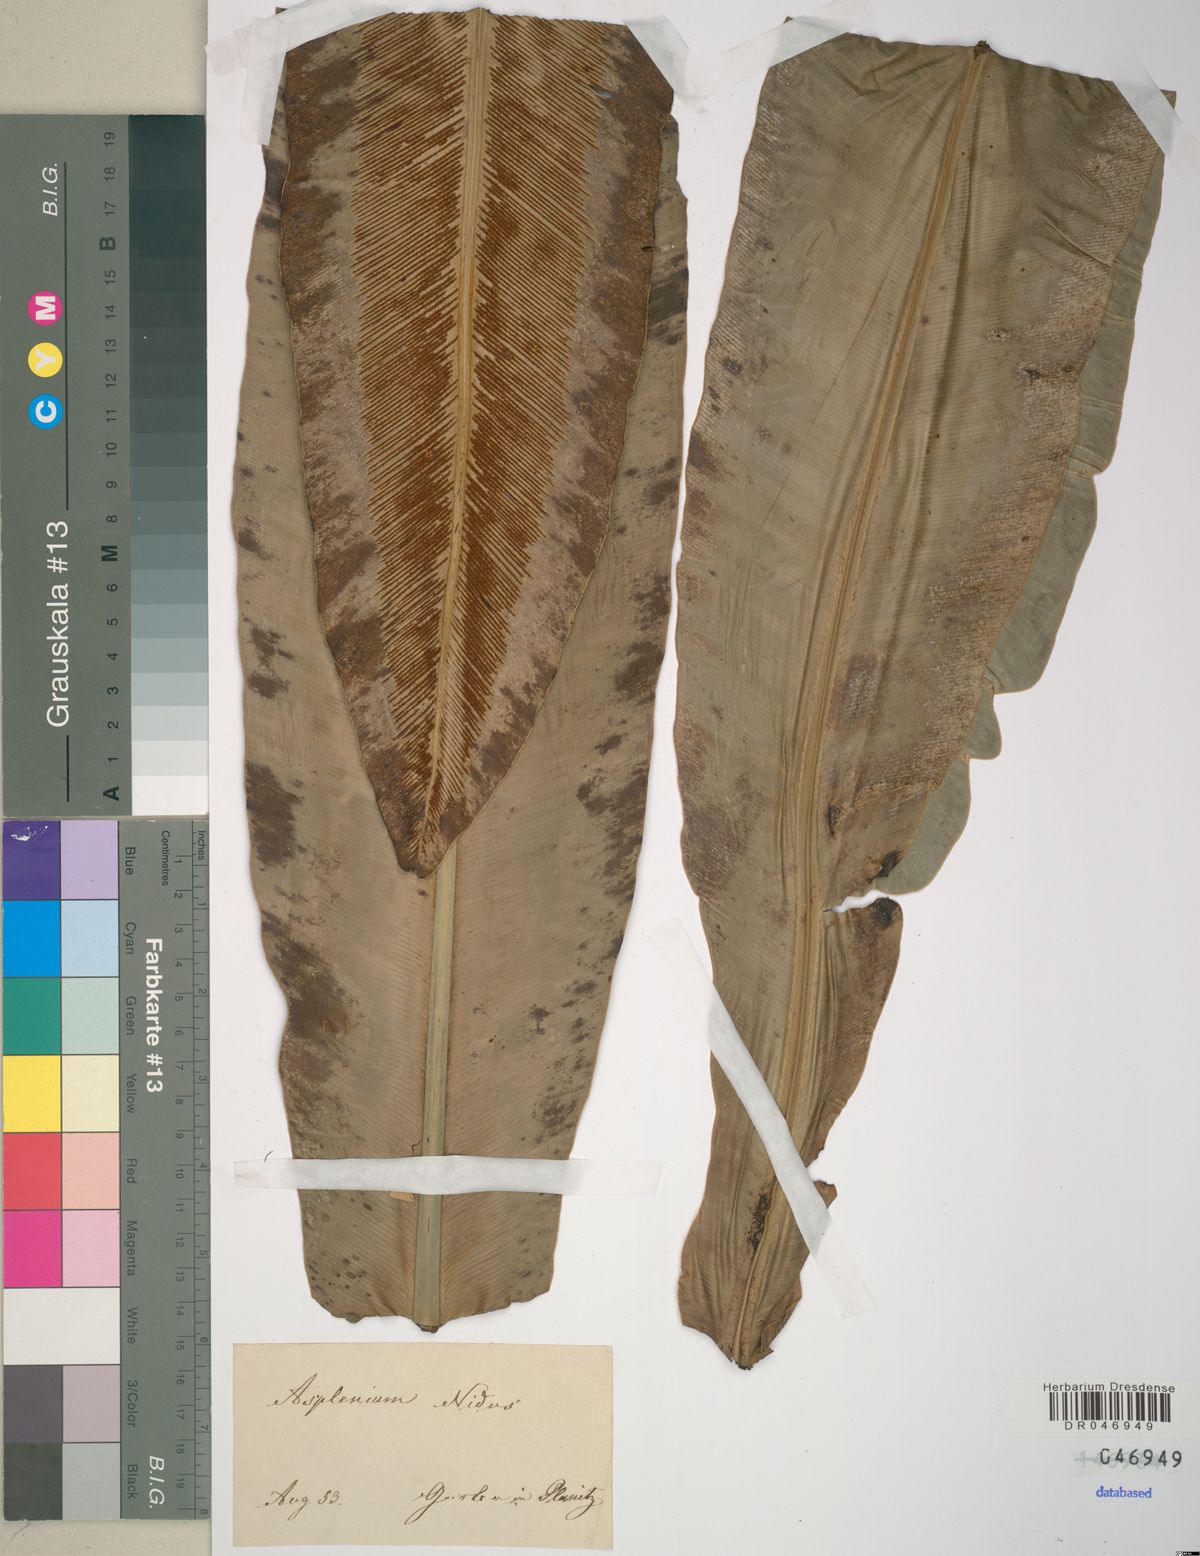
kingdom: Plantae
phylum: Tracheophyta
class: Polypodiopsida
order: Polypodiales
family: Aspleniaceae
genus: Asplenium
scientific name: Asplenium nidus
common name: Bird's-nest fern
